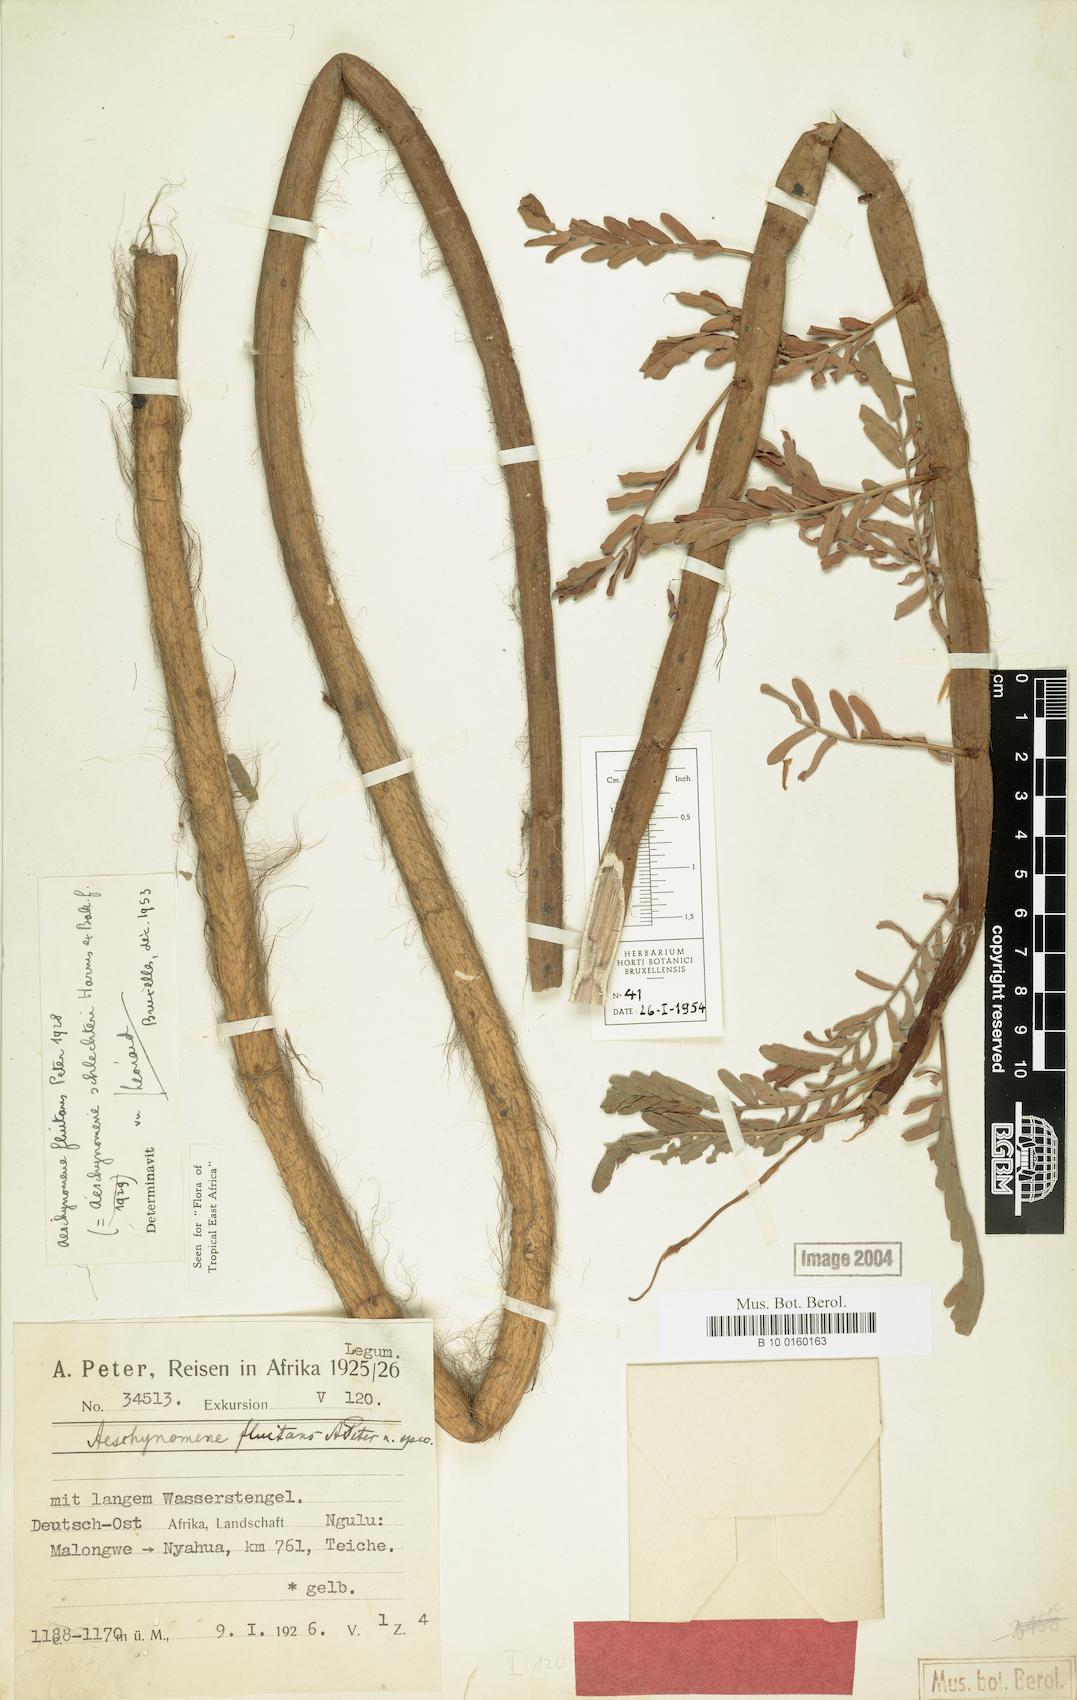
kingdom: Plantae
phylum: Tracheophyta
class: Magnoliopsida
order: Fabales
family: Fabaceae
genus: Aeschynomene
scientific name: Aeschynomene fluitans
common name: Giant water sensitive plant
